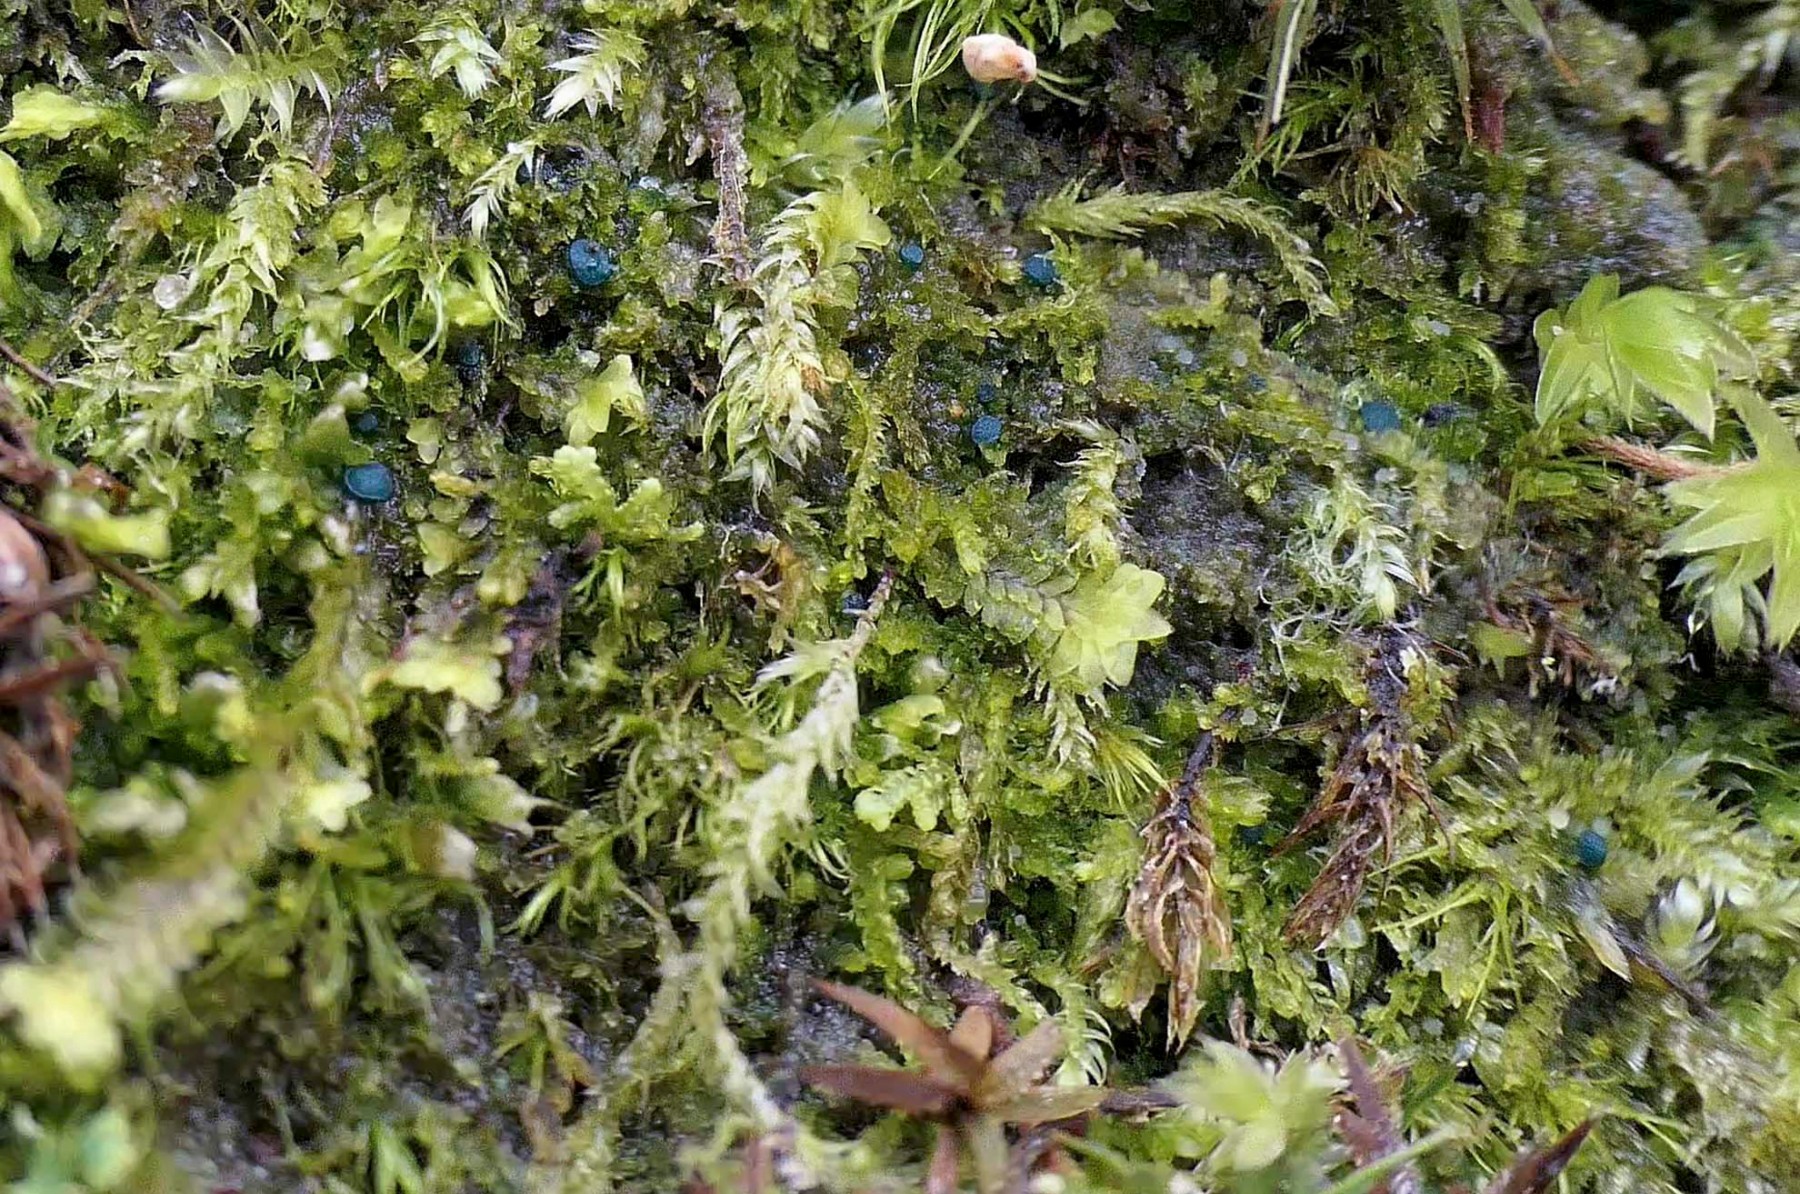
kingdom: Fungi
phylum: Ascomycota
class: Leotiomycetes
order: Leotiales
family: Mniaeciaceae
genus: Mniaecia
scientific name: Mniaecia jungermanniae
